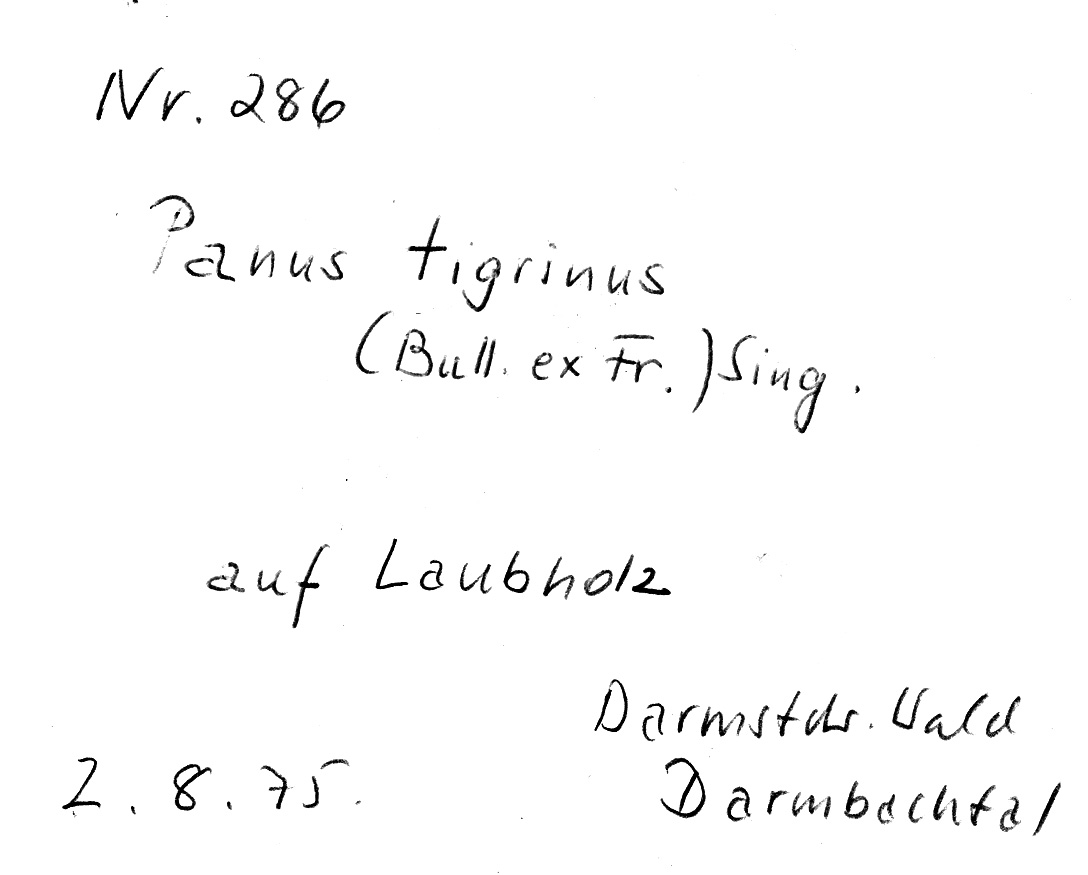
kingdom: Fungi
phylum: Basidiomycota
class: Agaricomycetes
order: Polyporales
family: Polyporaceae
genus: Lentinus
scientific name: Lentinus tigrinus
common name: Tiger sawgill
